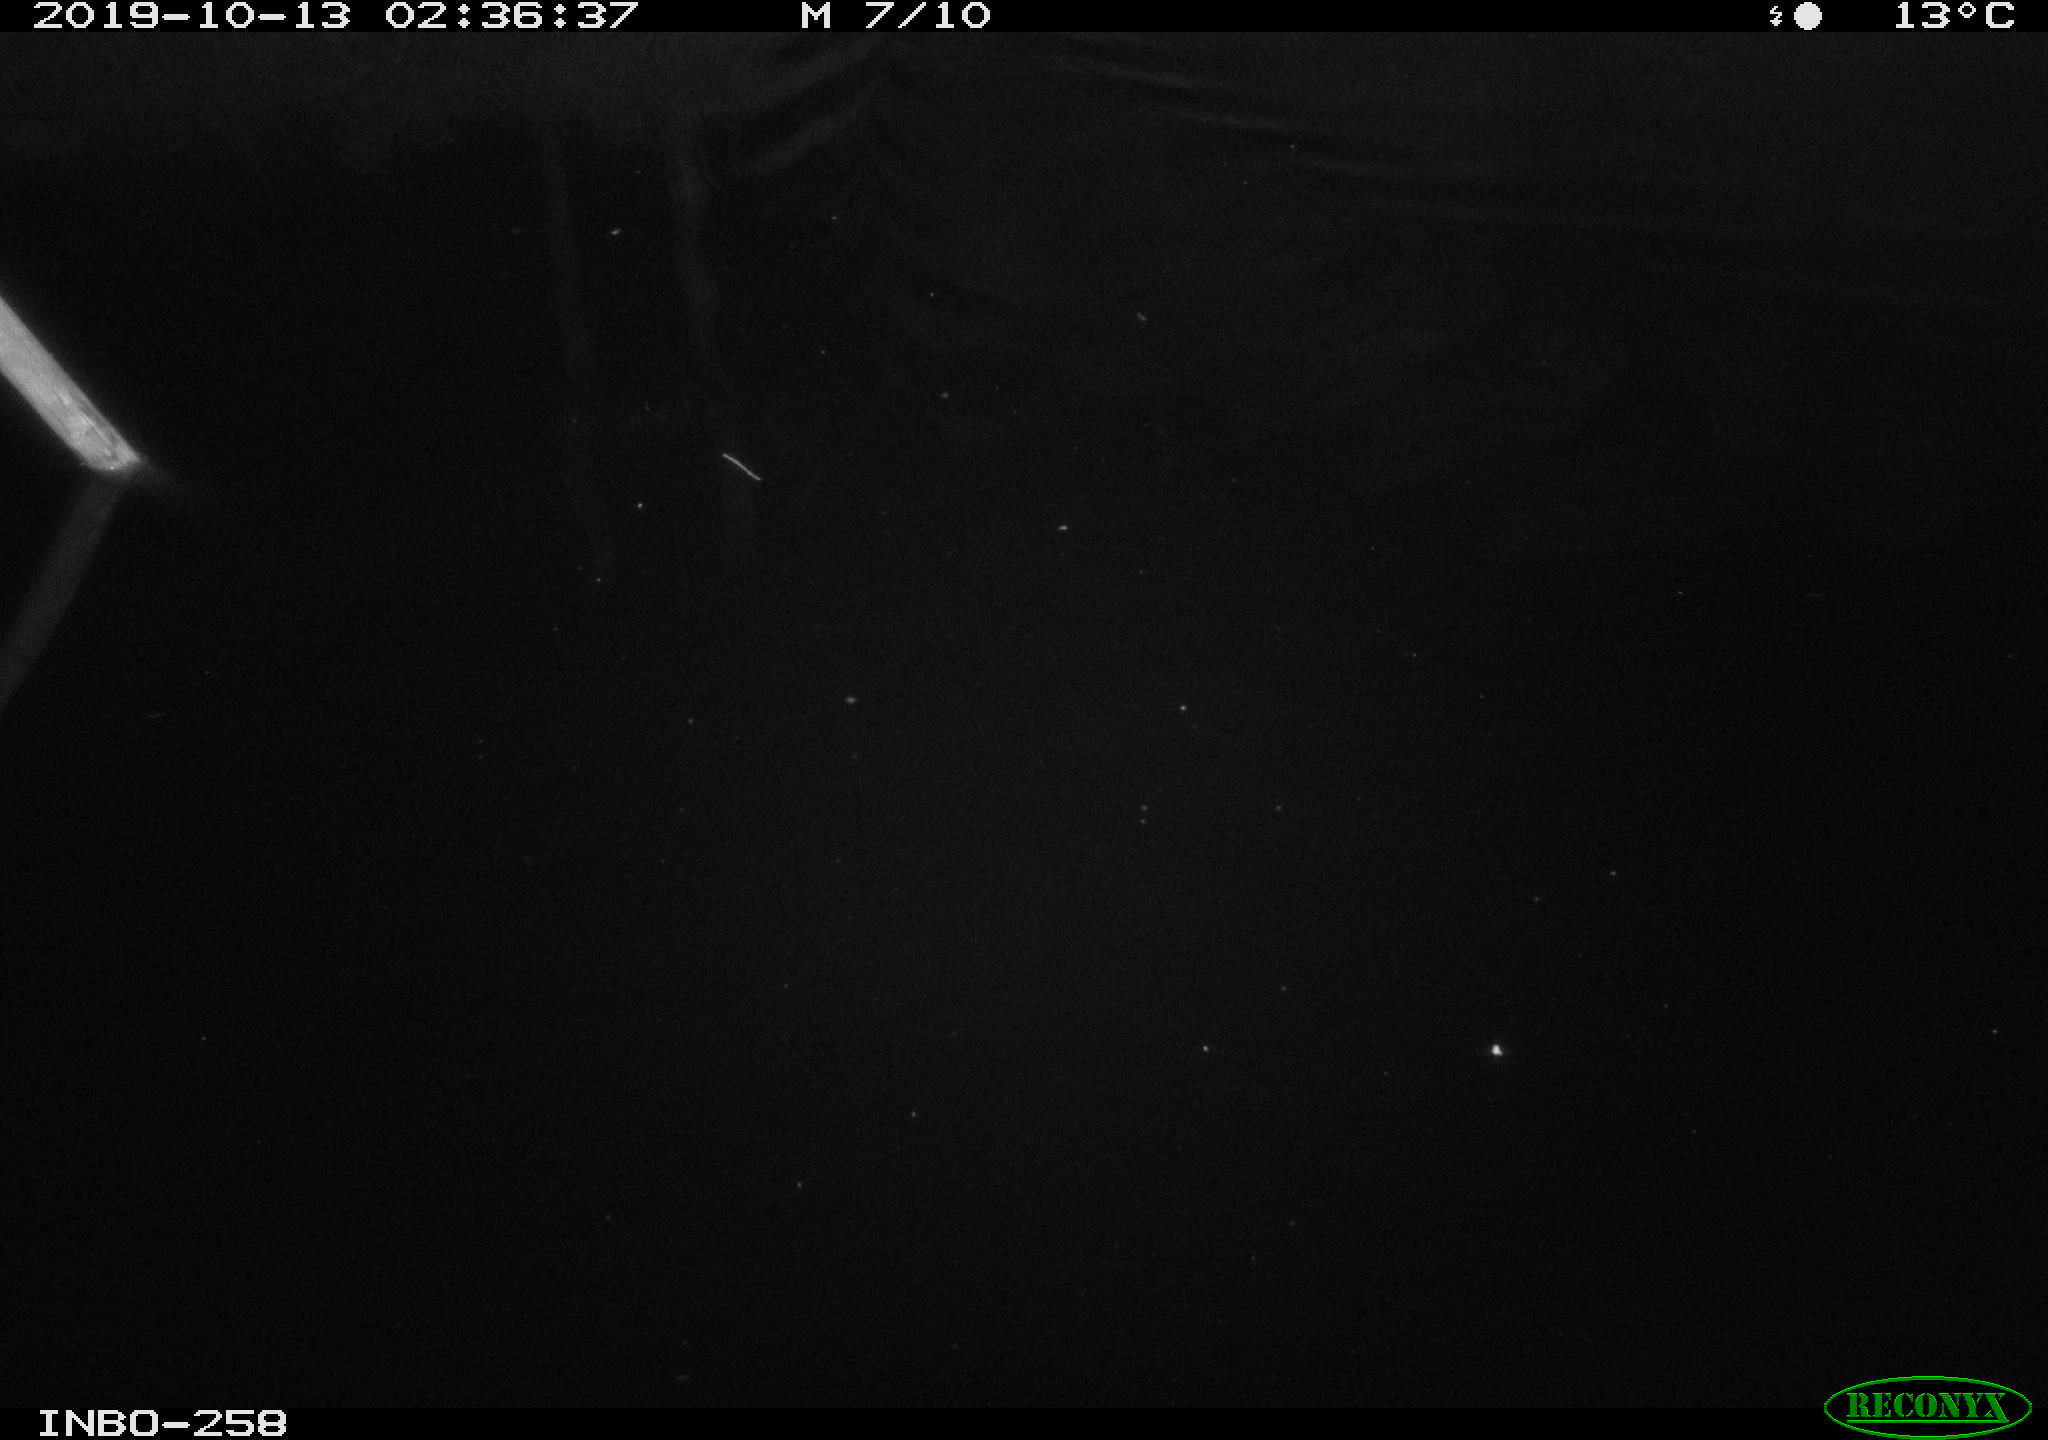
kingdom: Animalia
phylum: Chordata
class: Mammalia
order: Rodentia
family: Muridae
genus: Rattus
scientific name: Rattus norvegicus
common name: Brown rat
